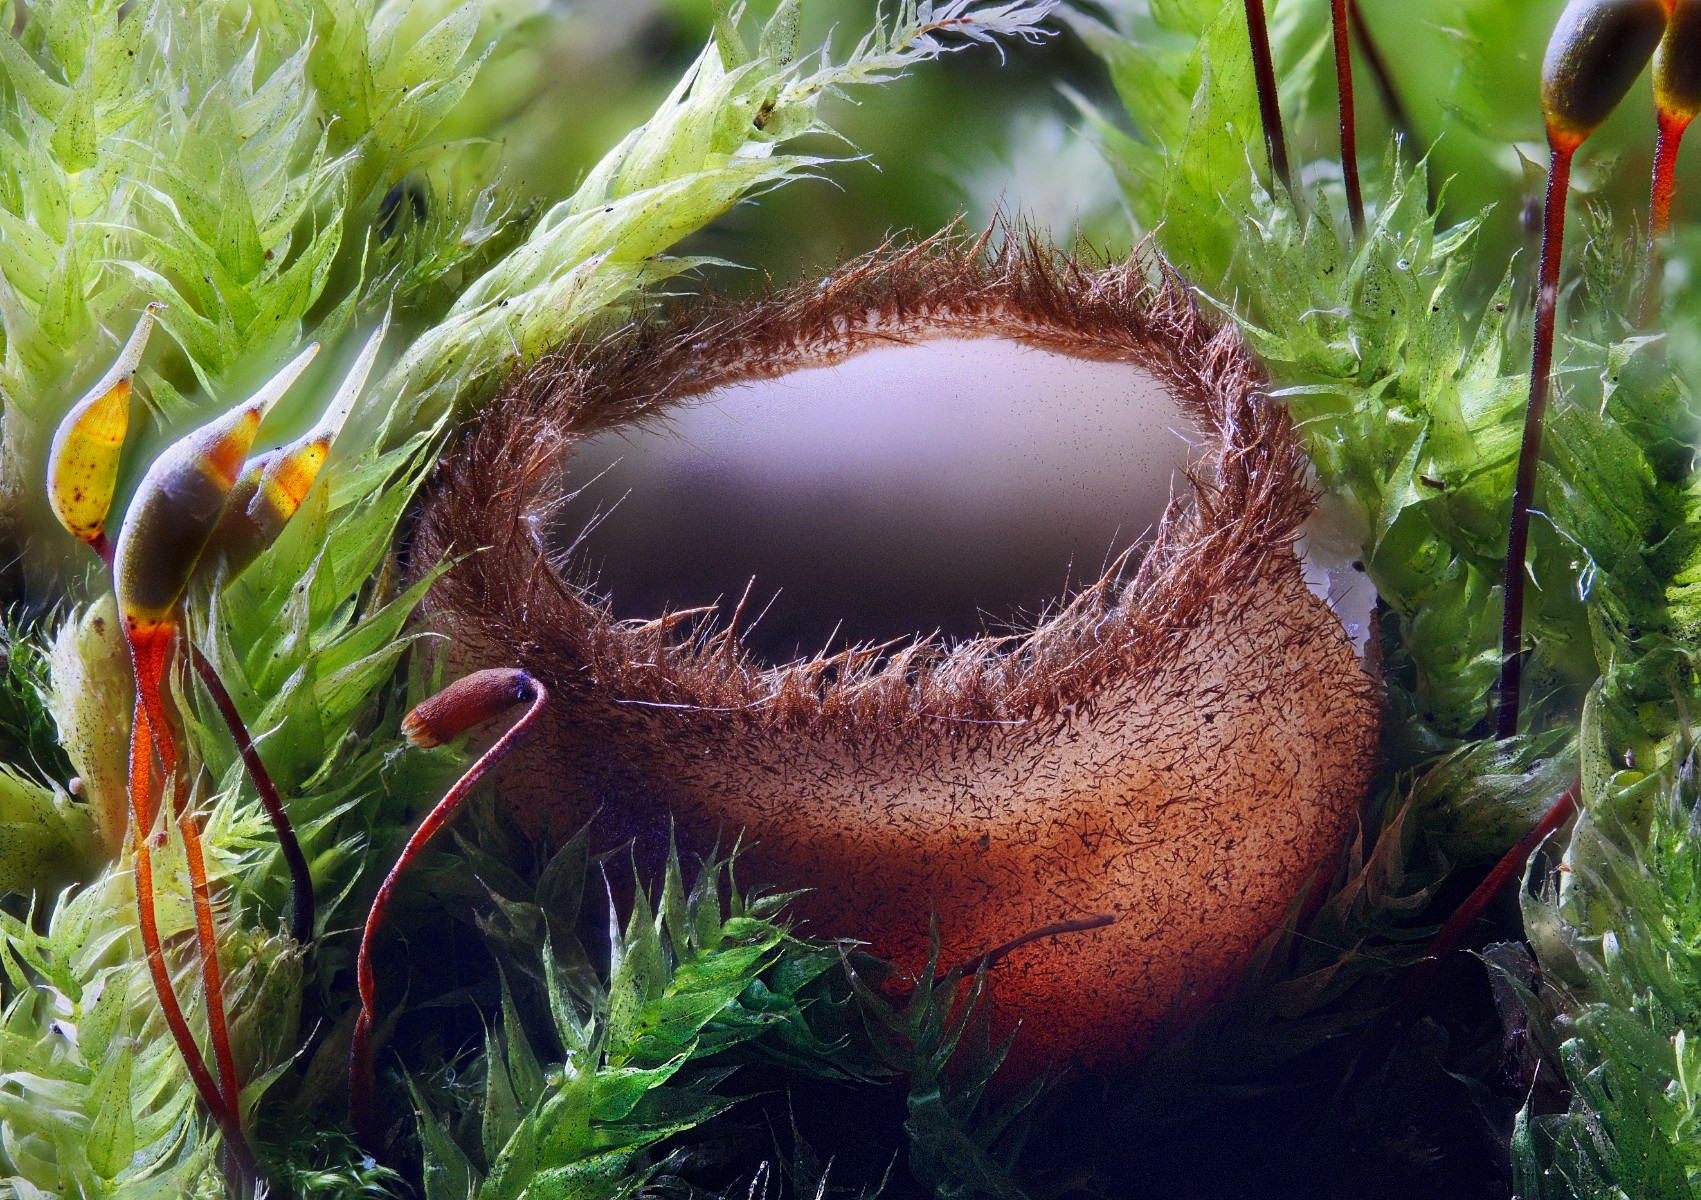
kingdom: Fungi
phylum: Ascomycota
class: Pezizomycetes
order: Pezizales
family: Pyronemataceae
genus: Humaria
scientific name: Humaria hemisphaerica
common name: halvkugleformet børstebæger
